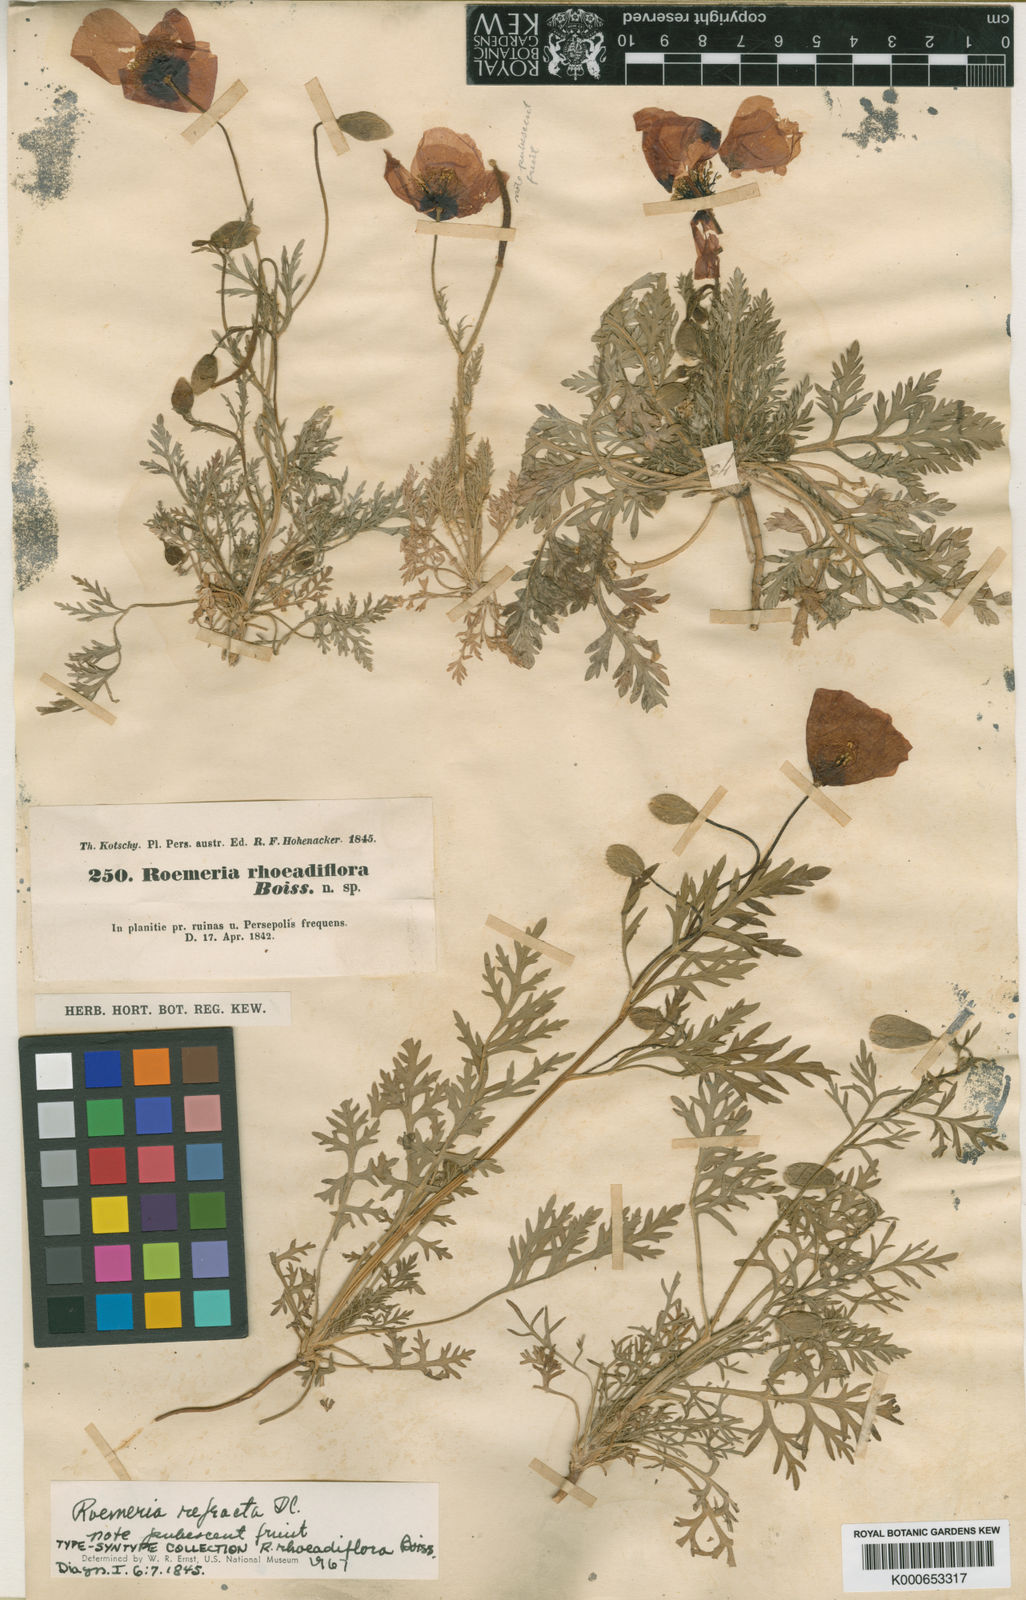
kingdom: Plantae
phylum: Tracheophyta
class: Magnoliopsida
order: Ranunculales
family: Papaveraceae
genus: Roemeria
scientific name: Roemeria refracta
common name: Spotted asian poppy
